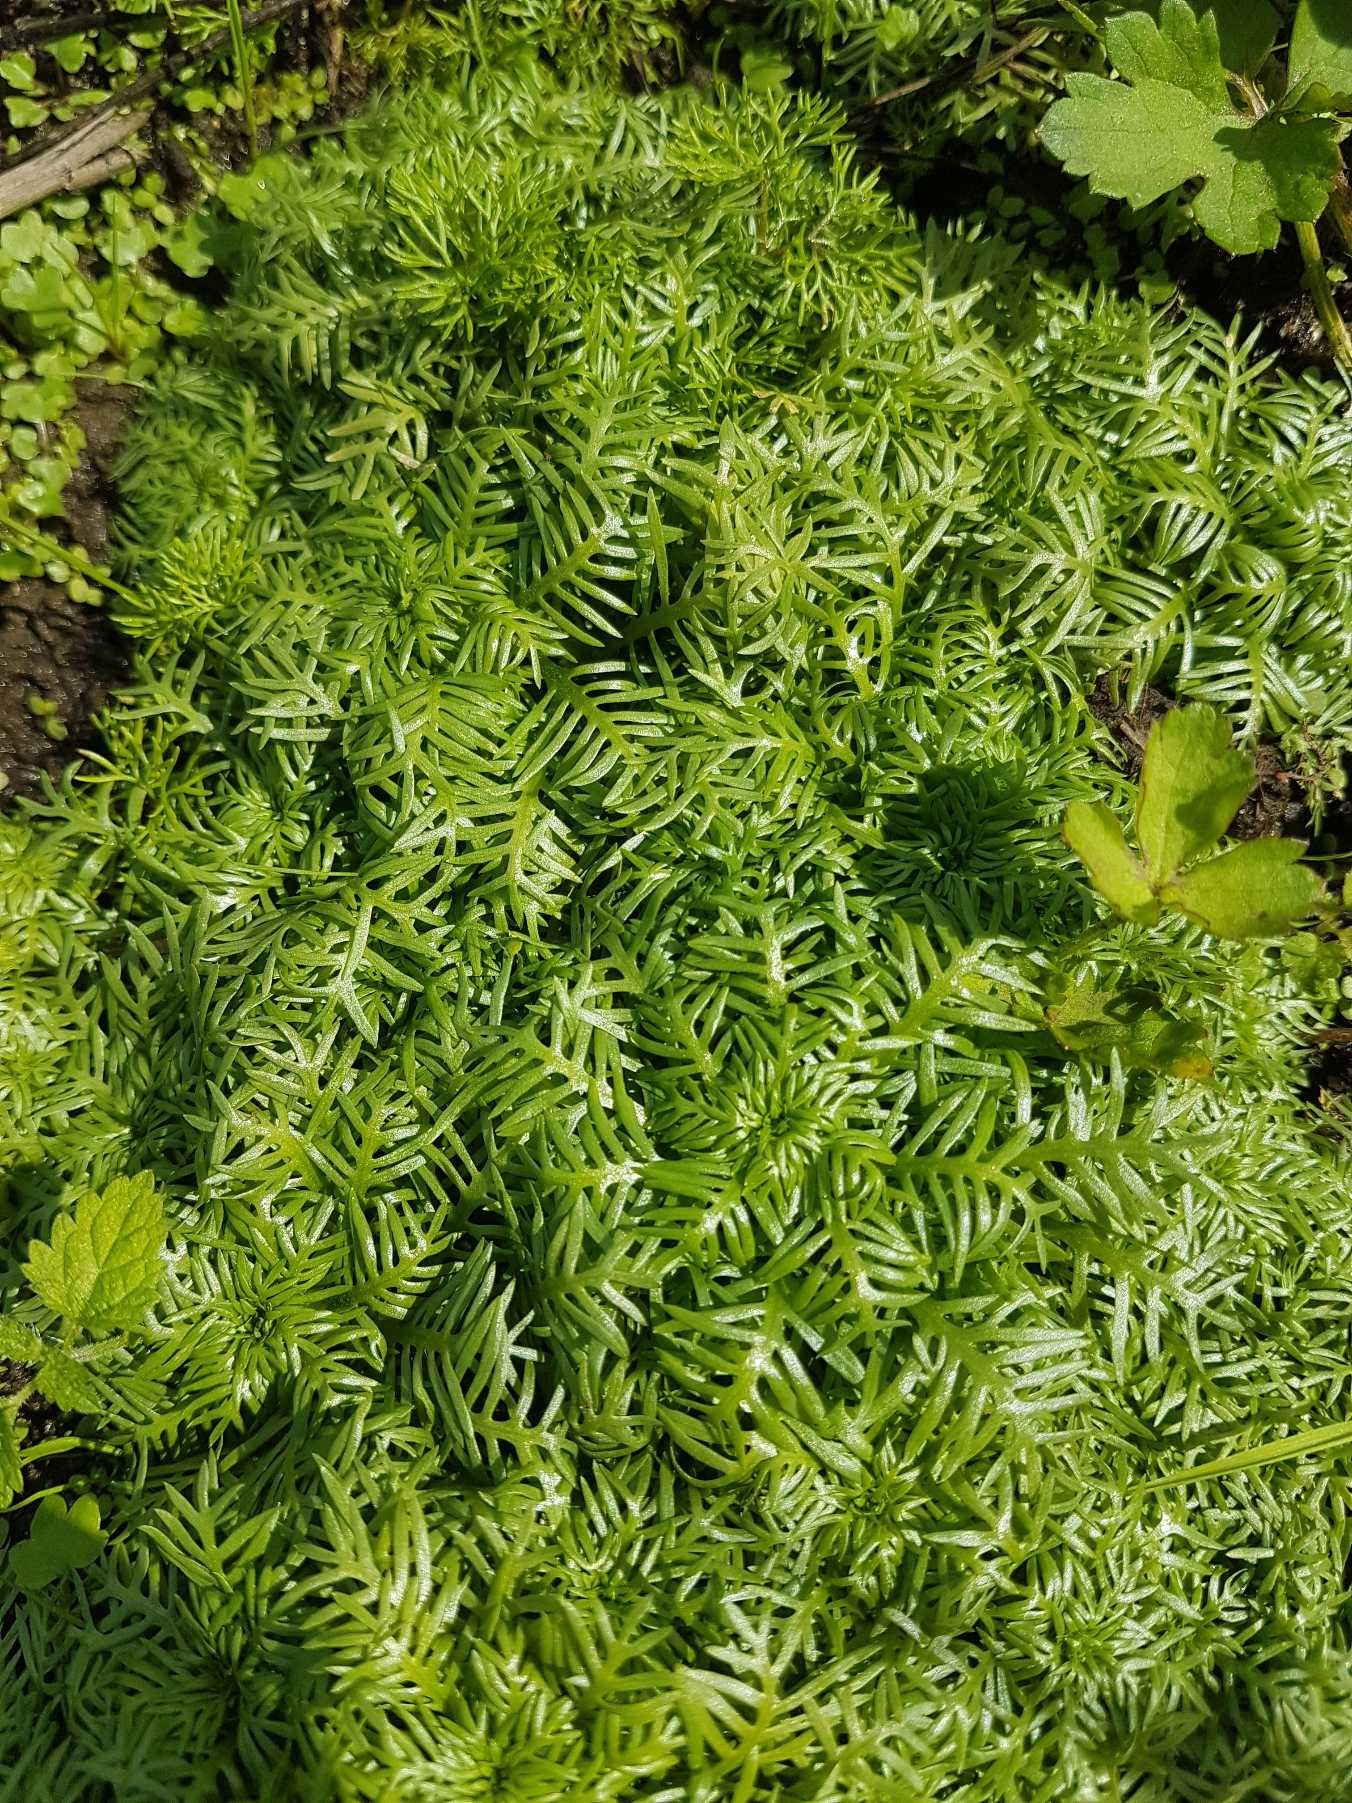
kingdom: Plantae
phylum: Tracheophyta
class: Magnoliopsida
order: Ericales
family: Primulaceae
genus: Hottonia
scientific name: Hottonia palustris
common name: Vandrøllike
